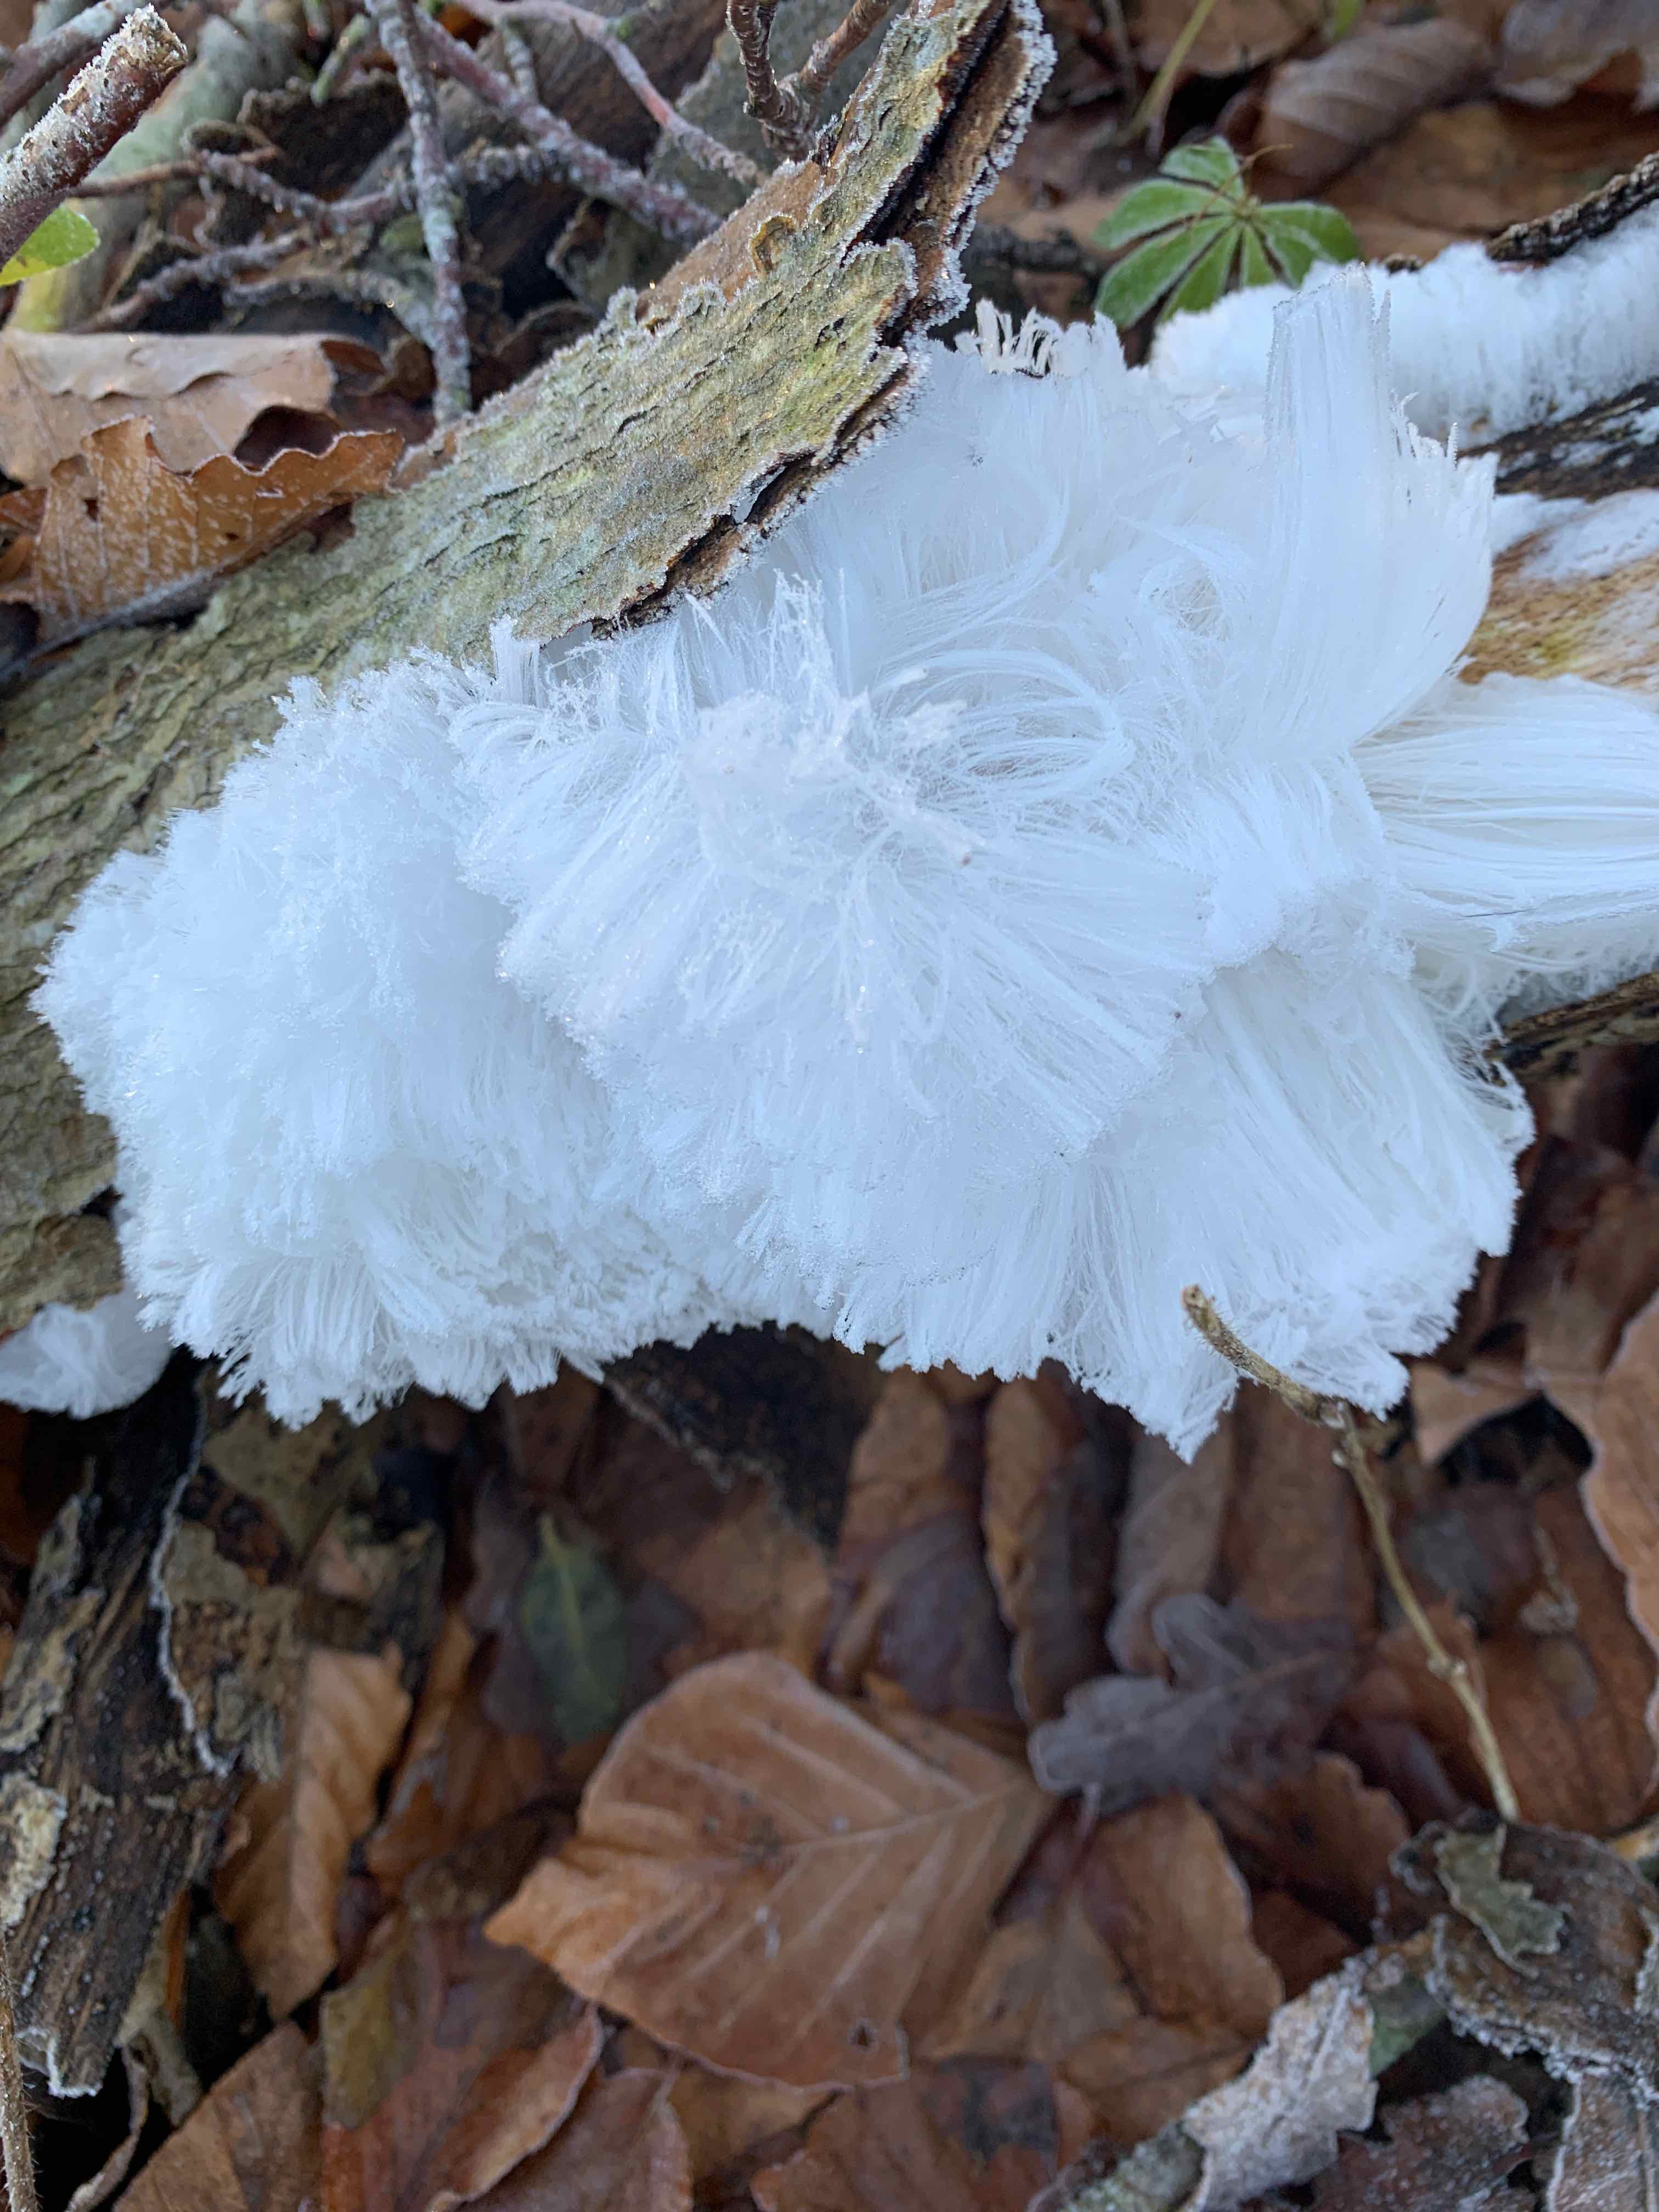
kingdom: Fungi
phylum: Basidiomycota
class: Tremellomycetes
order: Tremellales
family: Exidiaceae
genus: Exidiopsis
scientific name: Exidiopsis effusa
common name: smuk bævrehinde
